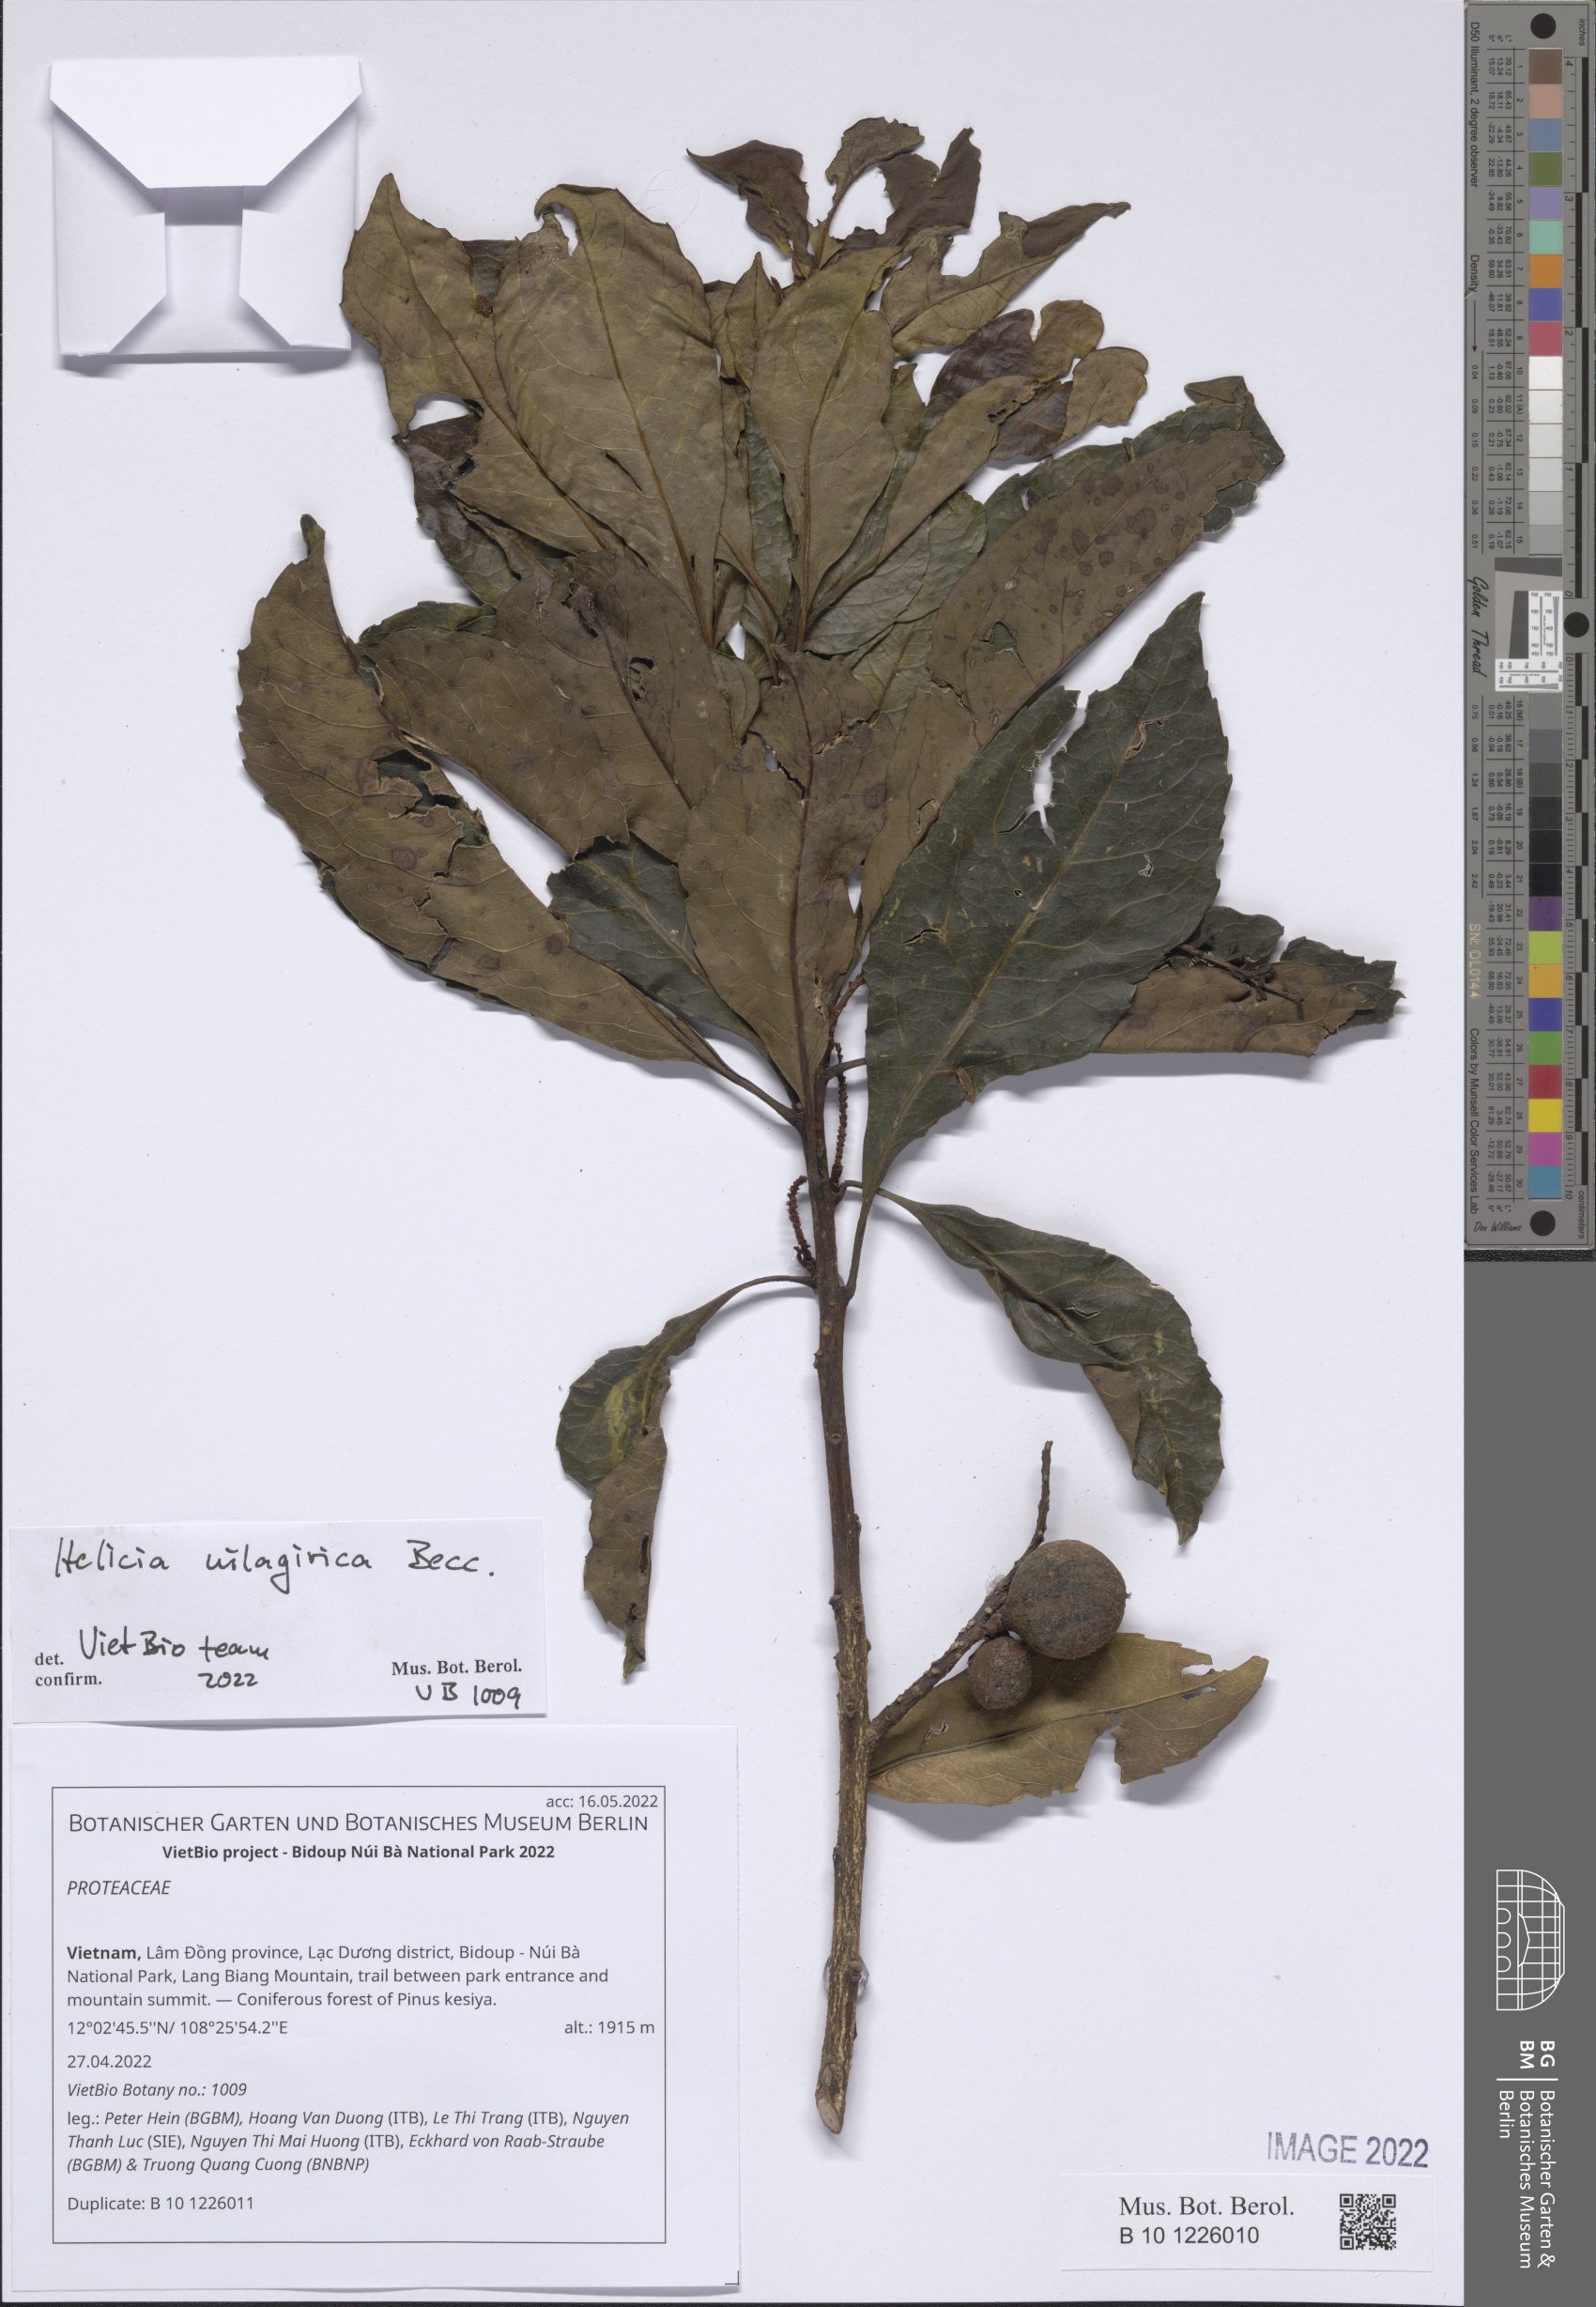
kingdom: Plantae
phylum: Tracheophyta
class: Magnoliopsida
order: Proteales
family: Proteaceae
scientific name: Proteaceae
